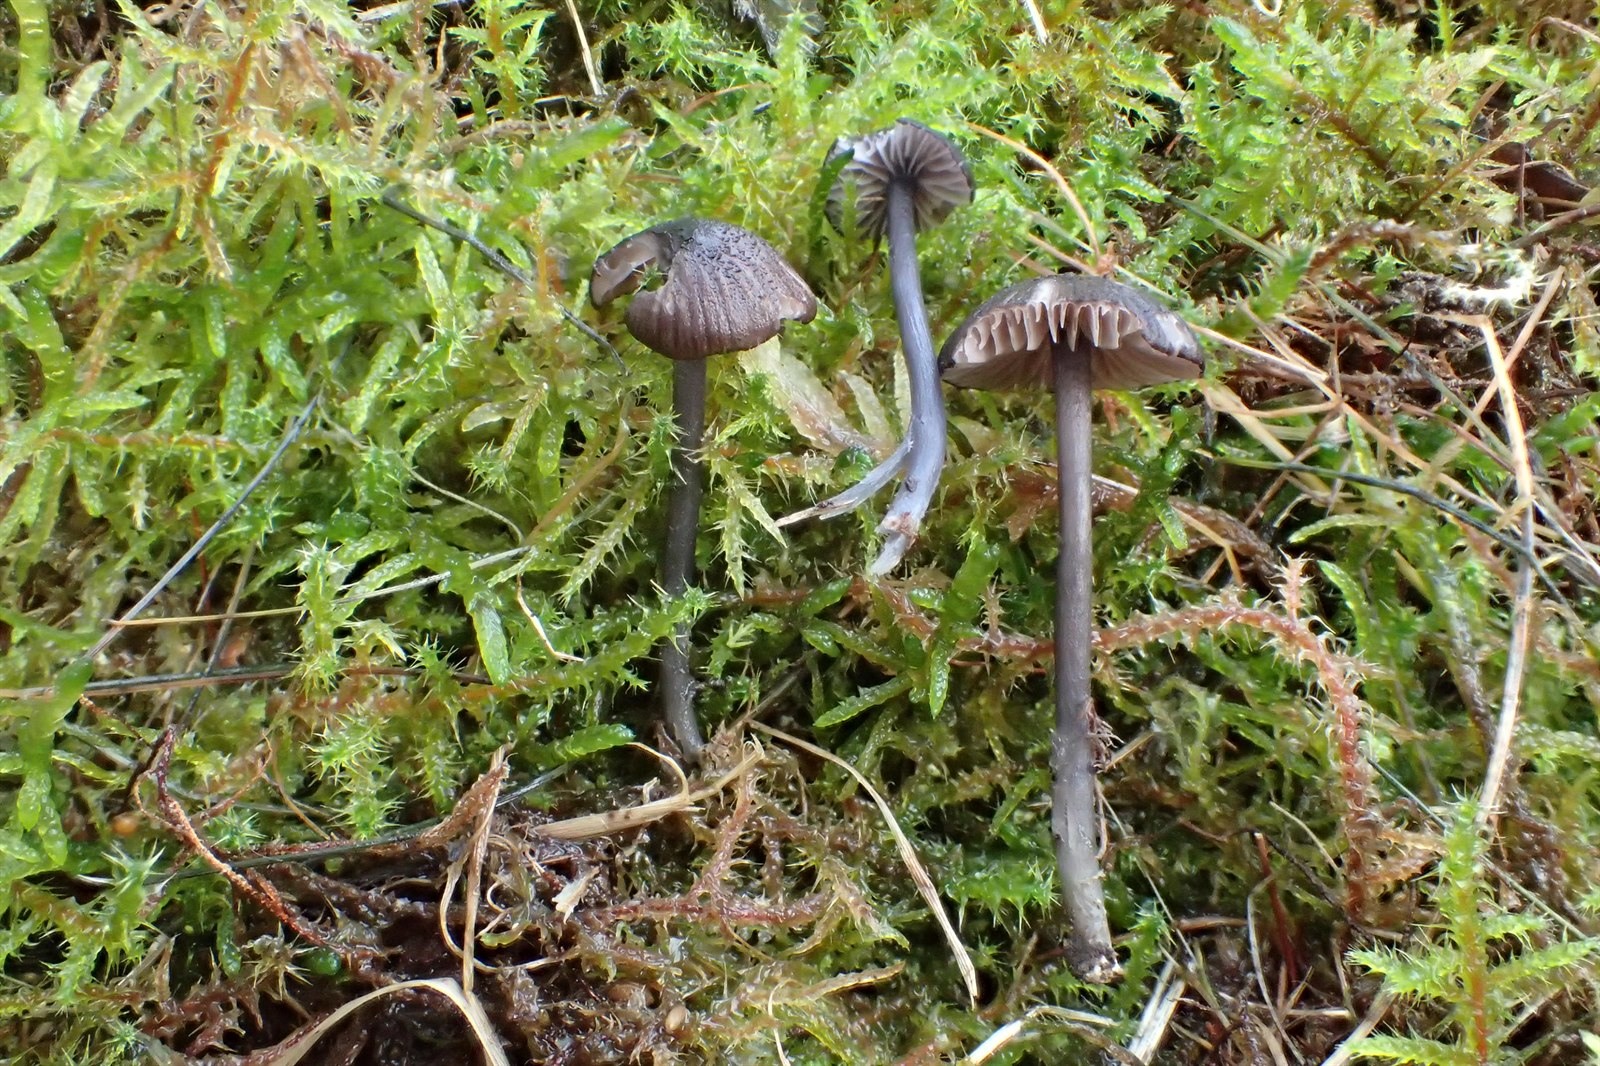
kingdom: Fungi
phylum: Basidiomycota
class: Agaricomycetes
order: Agaricales
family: Entolomataceae
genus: Entoloma
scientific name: Entoloma poliopus
